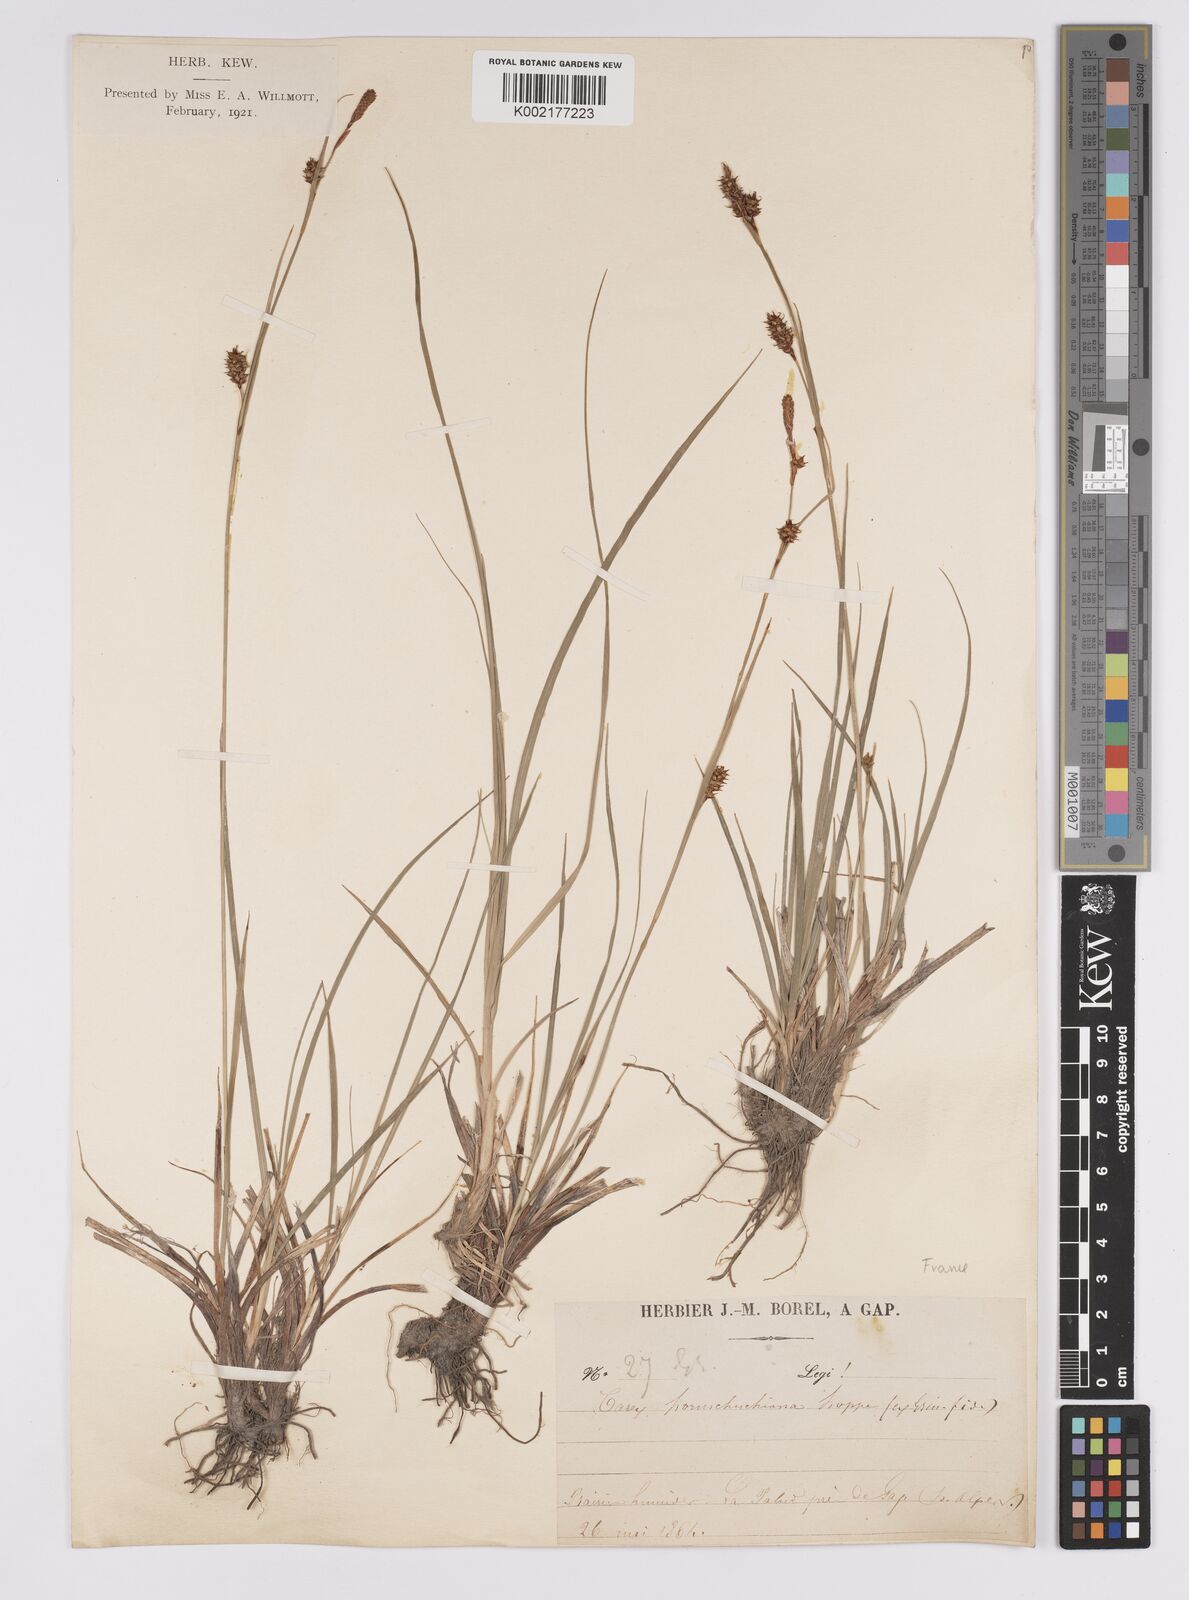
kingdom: Plantae
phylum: Tracheophyta
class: Liliopsida
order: Poales
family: Cyperaceae
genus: Carex
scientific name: Carex hostiana
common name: Tawny sedge
